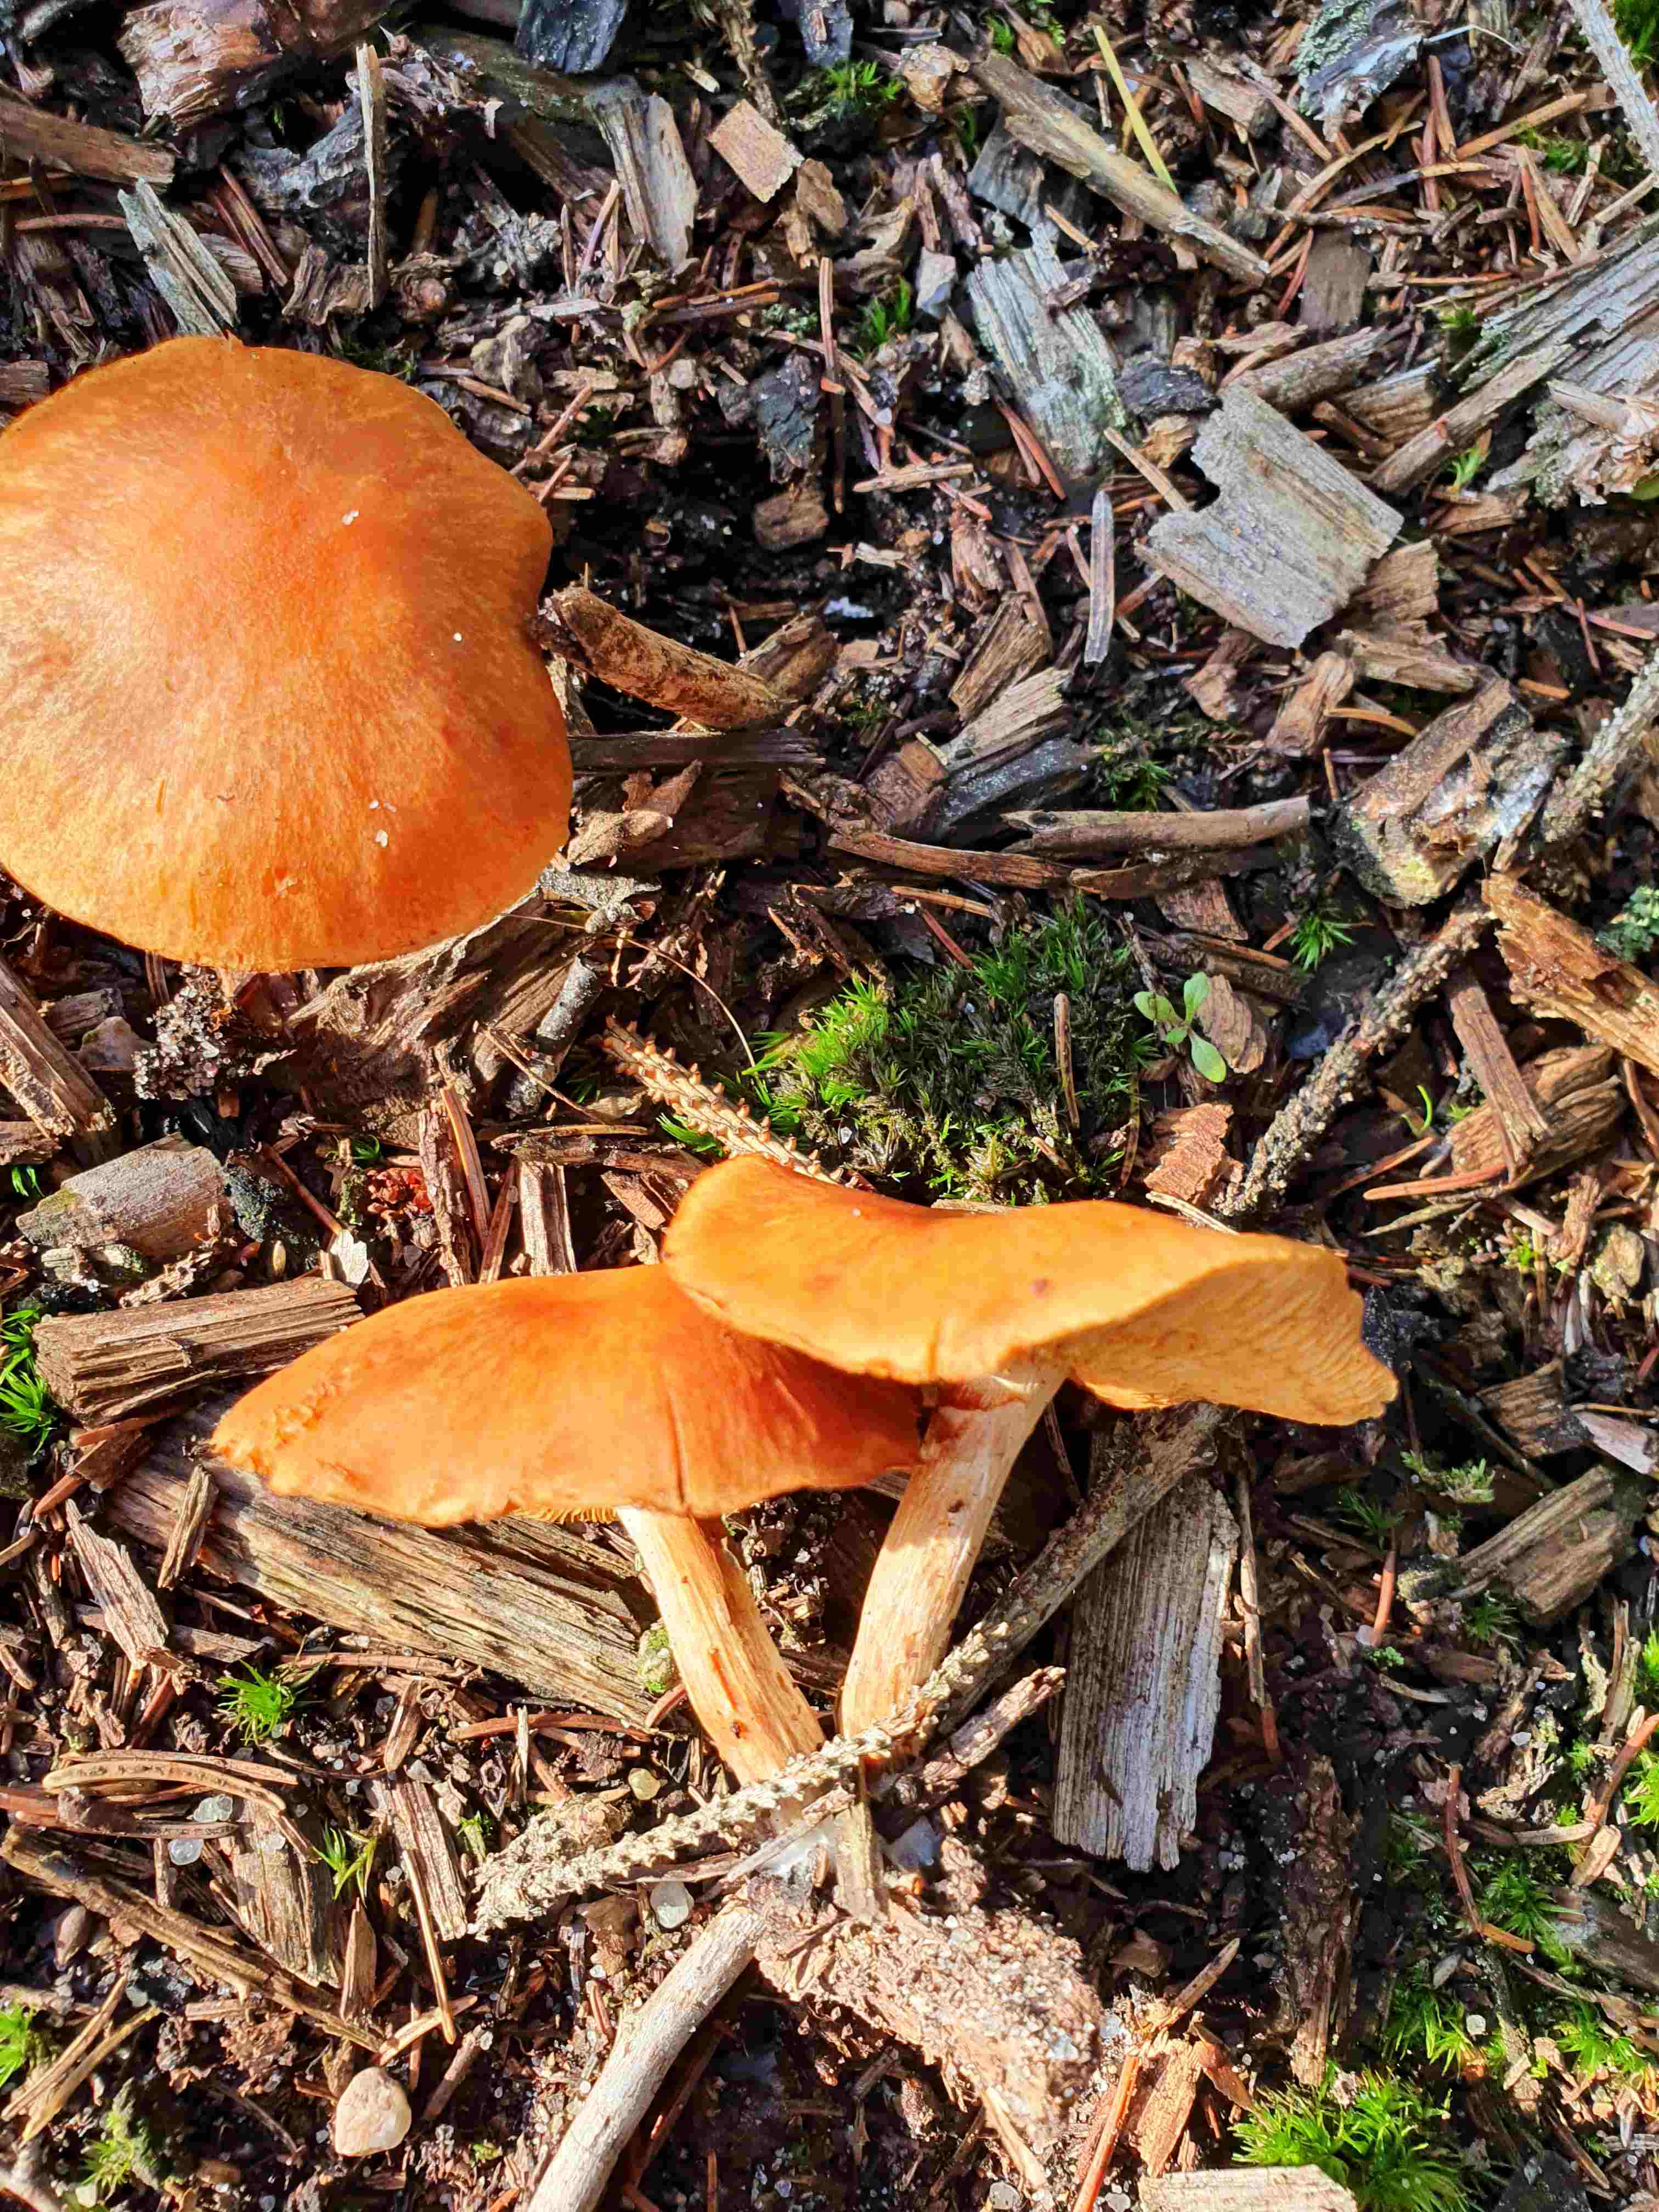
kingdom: Fungi
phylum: Basidiomycota
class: Agaricomycetes
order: Agaricales
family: Hymenogastraceae
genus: Gymnopilus
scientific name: Gymnopilus penetrans
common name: plettet flammehat
